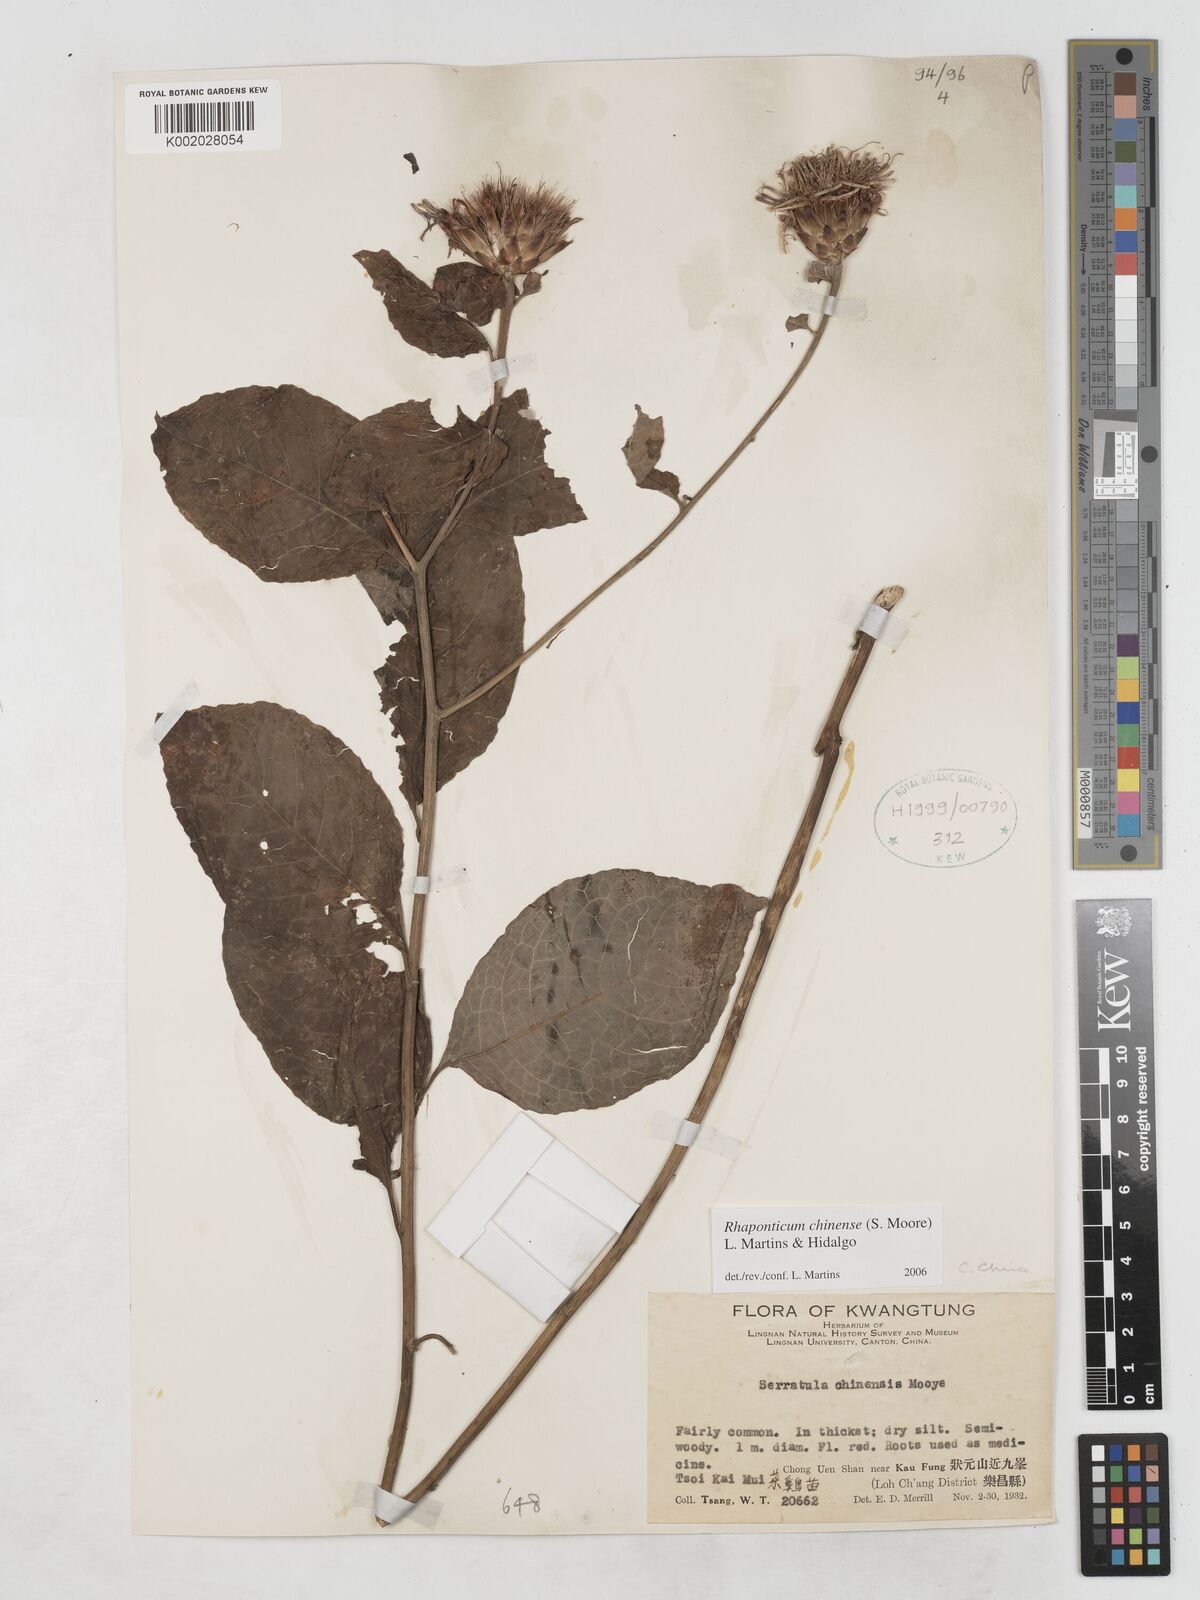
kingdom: Plantae
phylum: Tracheophyta
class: Magnoliopsida
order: Asterales
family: Asteraceae
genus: Klaseopsis
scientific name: Klaseopsis chinensis
